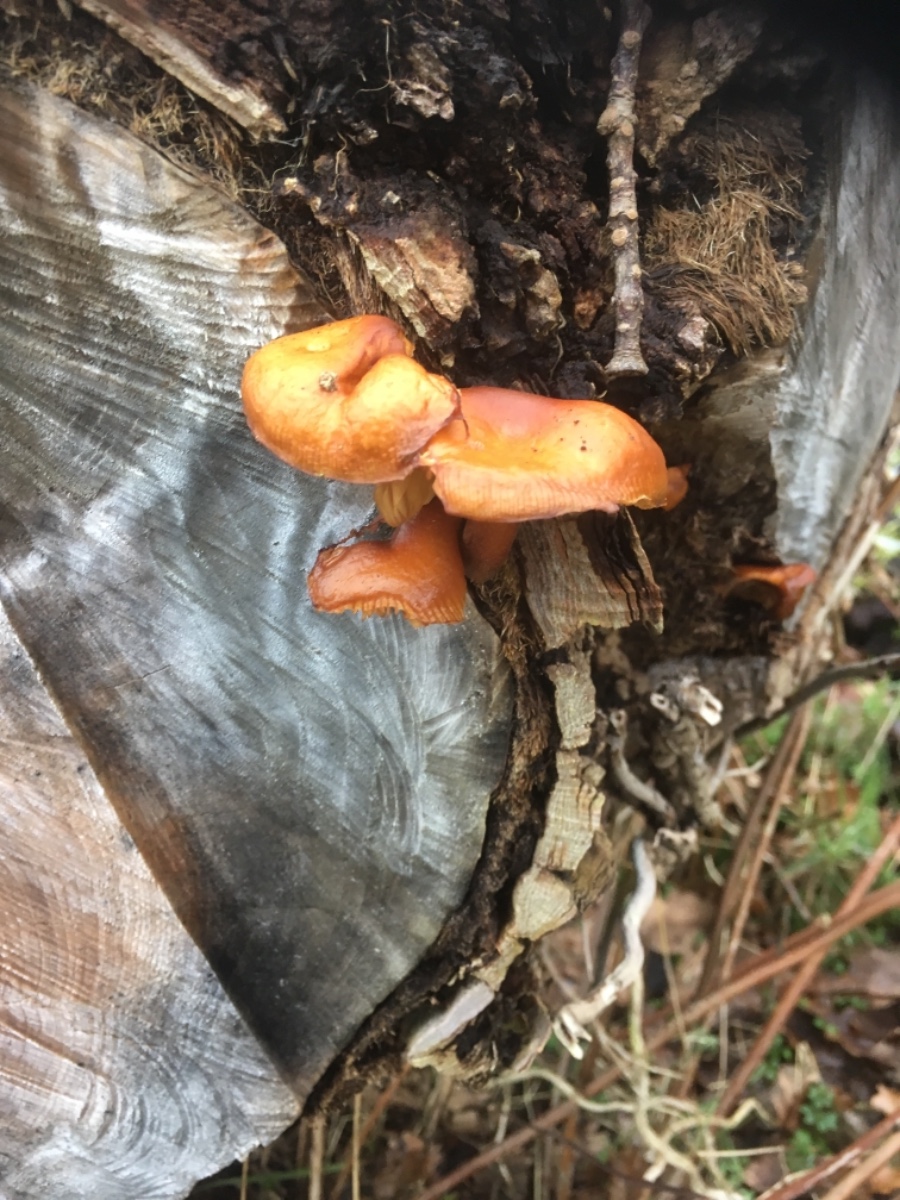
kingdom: Fungi
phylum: Basidiomycota
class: Agaricomycetes
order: Agaricales
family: Physalacriaceae
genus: Flammulina
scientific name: Flammulina velutipes
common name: gul fløjlsfod
